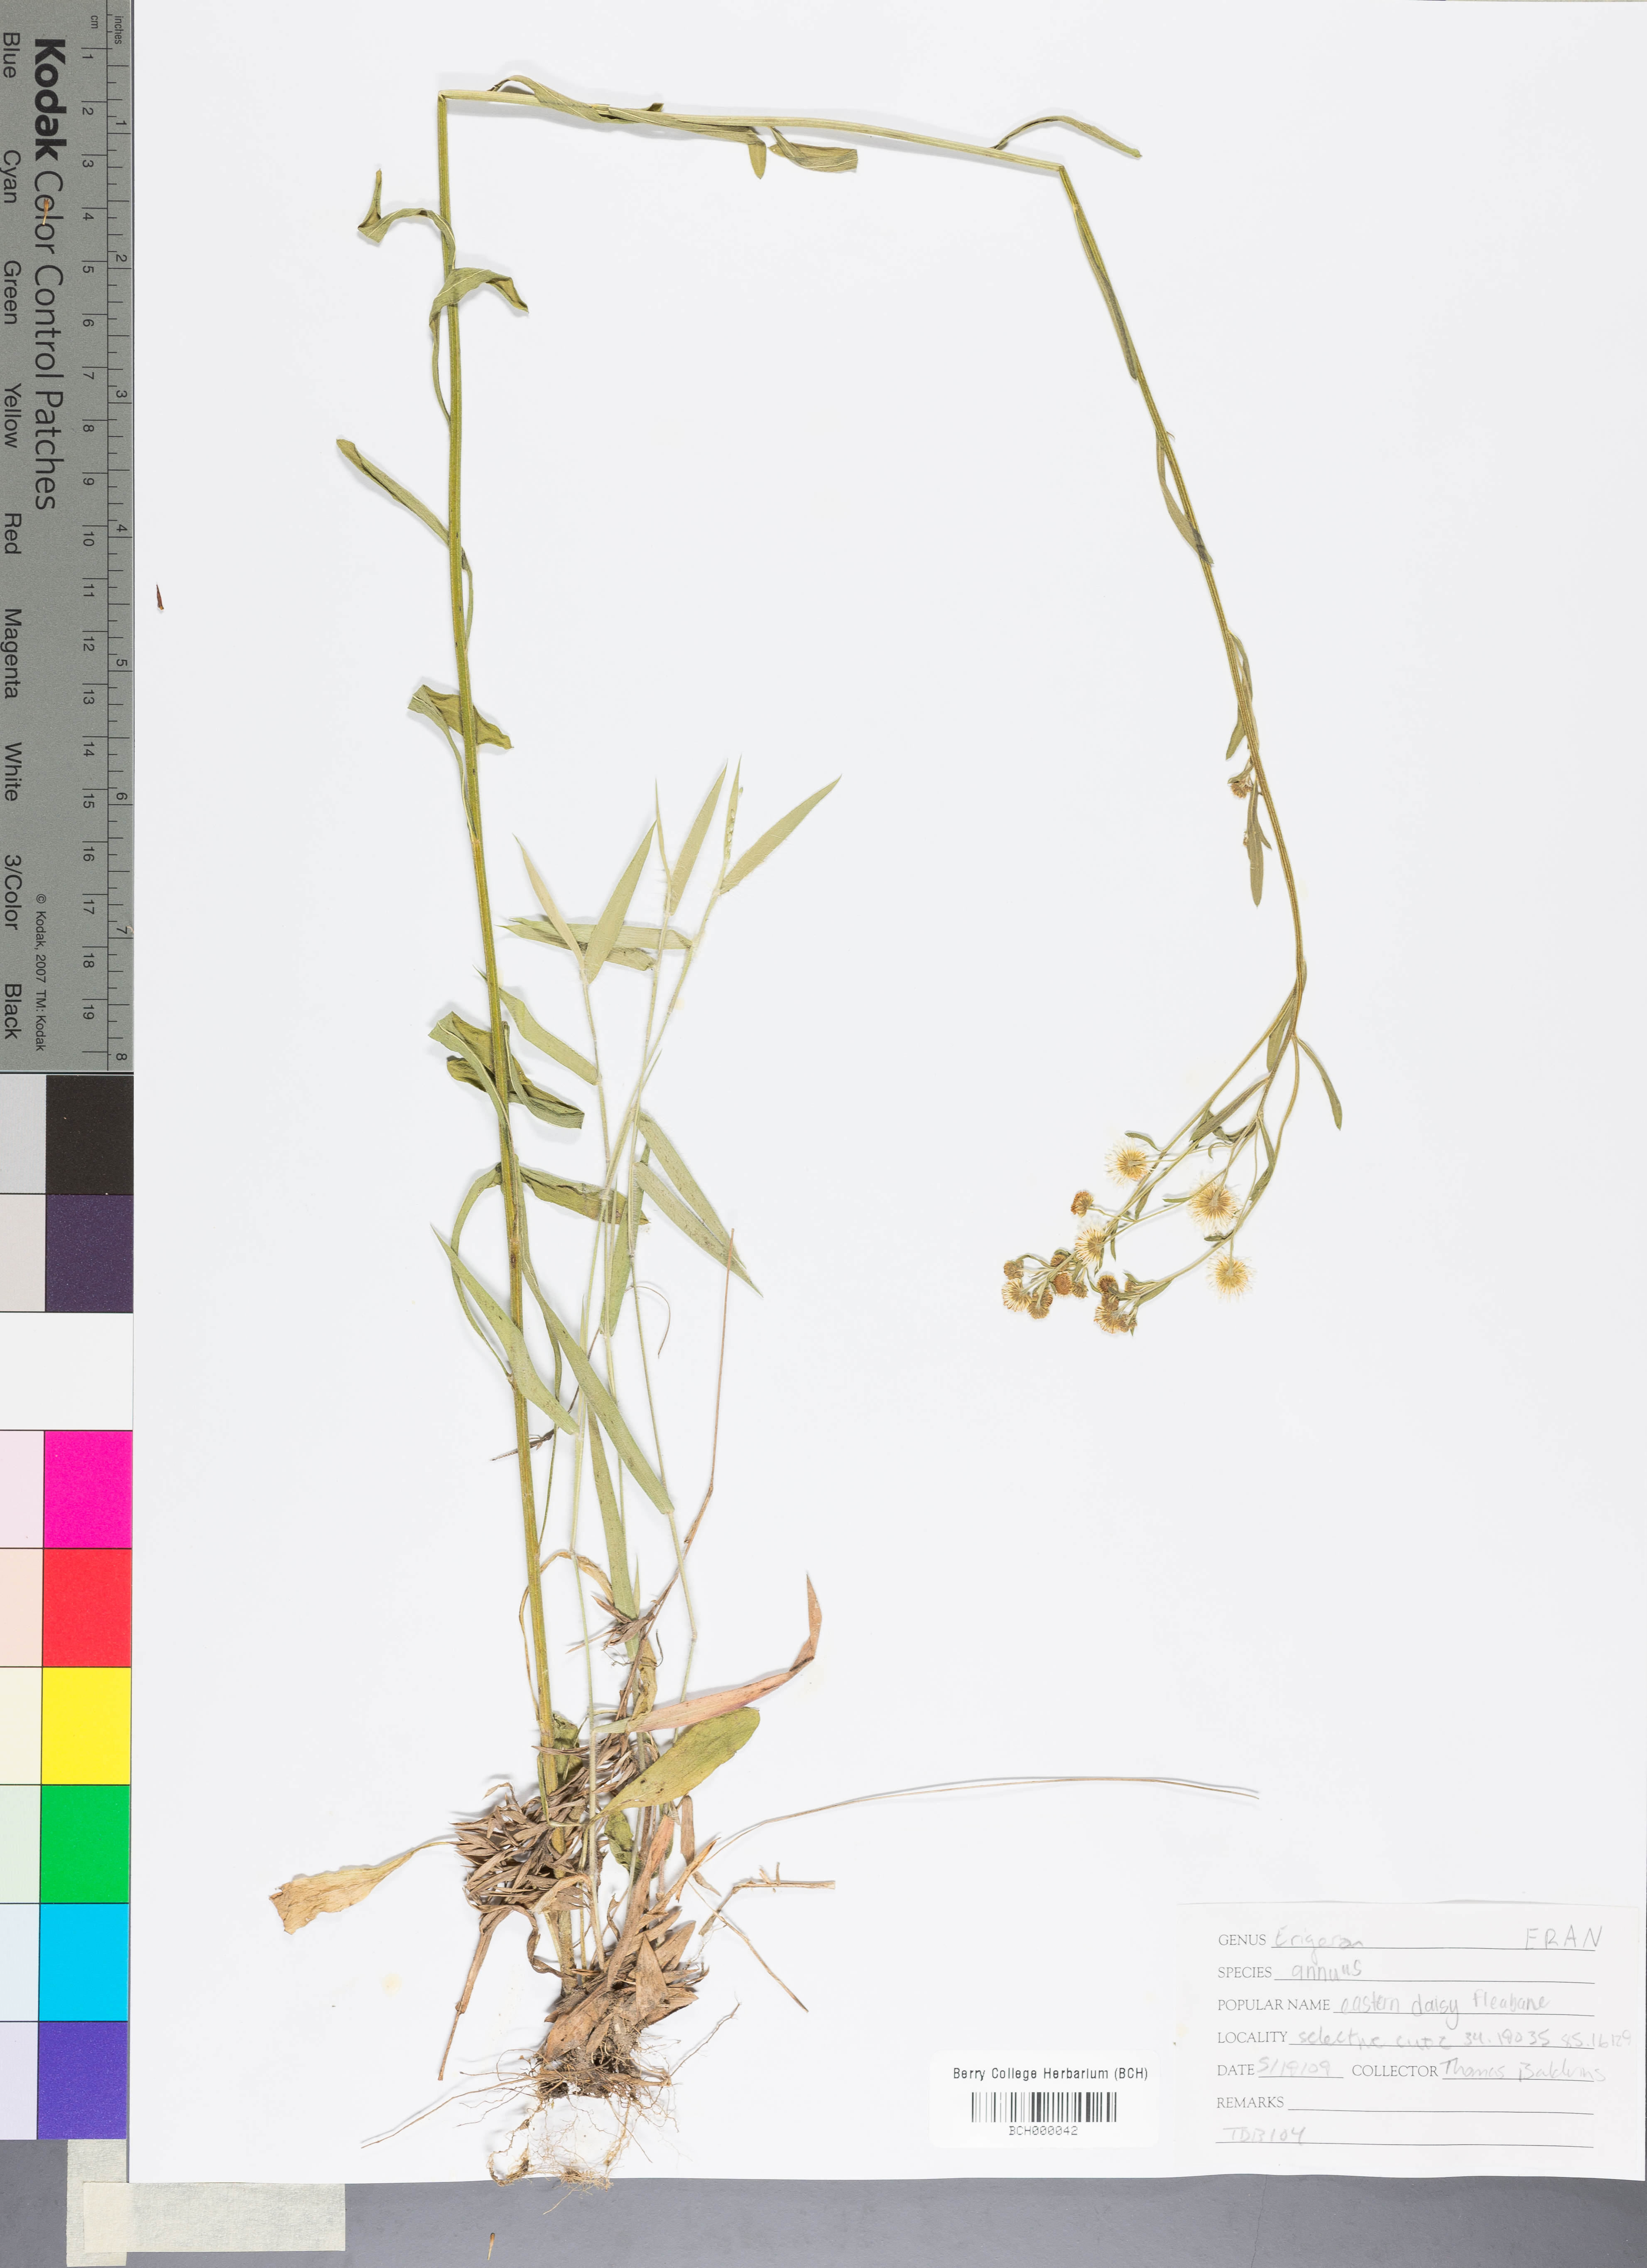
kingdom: Plantae
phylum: Tracheophyta
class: Magnoliopsida
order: Asterales
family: Asteraceae
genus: Erigeron
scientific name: Erigeron annuus
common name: Tall fleabane
